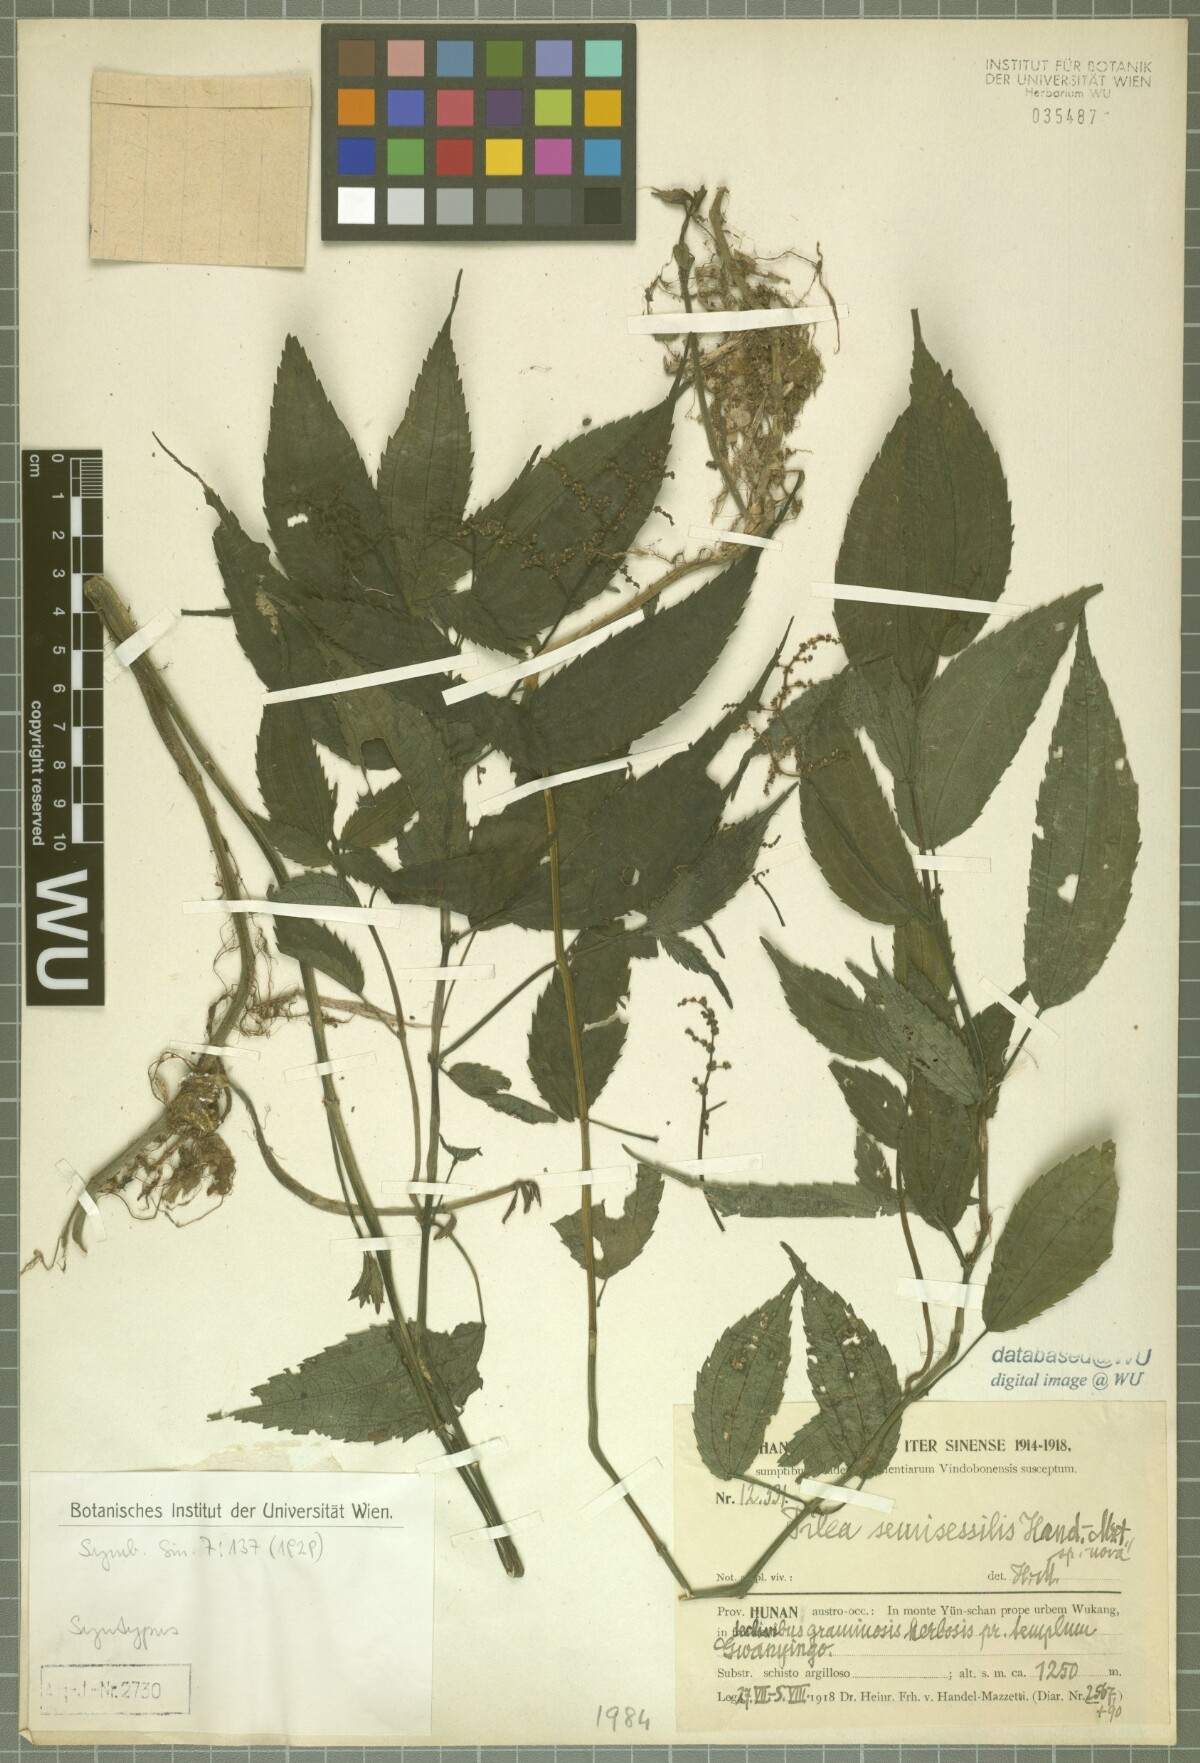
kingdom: Plantae
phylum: Tracheophyta
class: Magnoliopsida
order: Rosales
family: Urticaceae
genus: Pilea
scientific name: Pilea semisessilis
